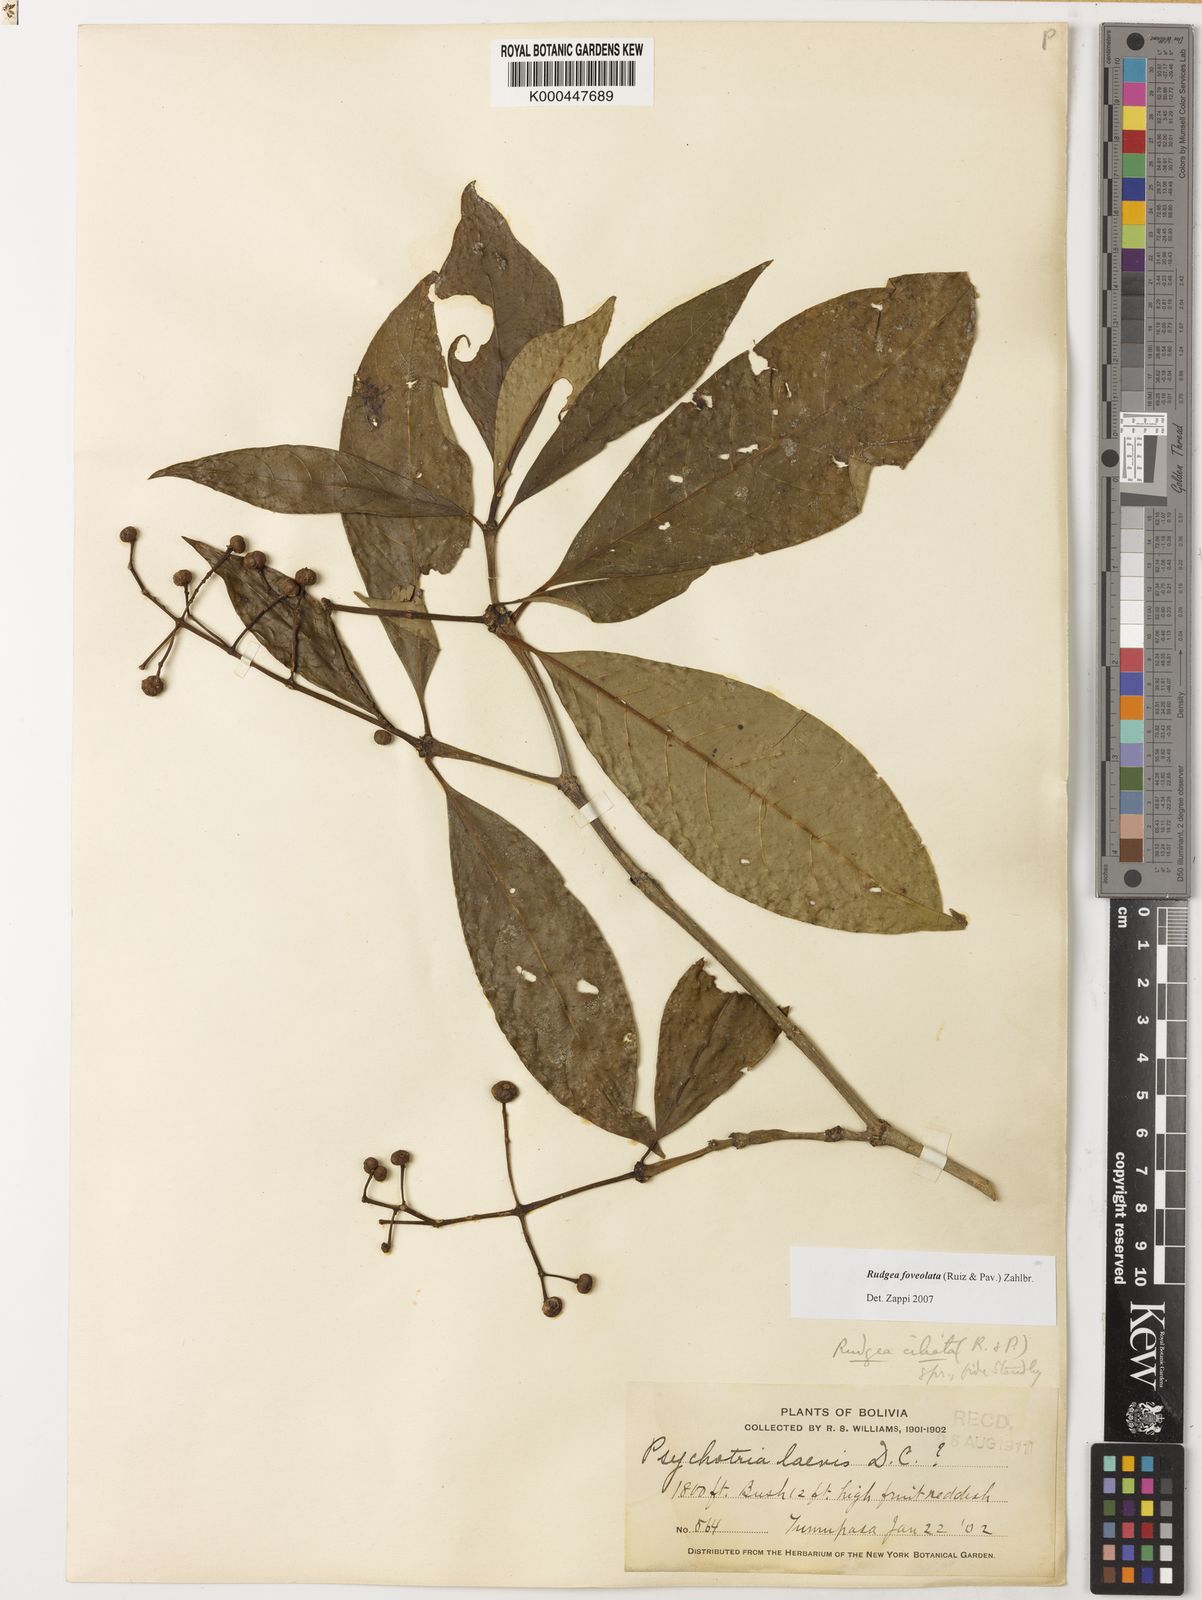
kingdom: Plantae
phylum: Tracheophyta
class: Magnoliopsida
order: Gentianales
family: Rubiaceae
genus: Rudgea
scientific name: Rudgea foveolata
